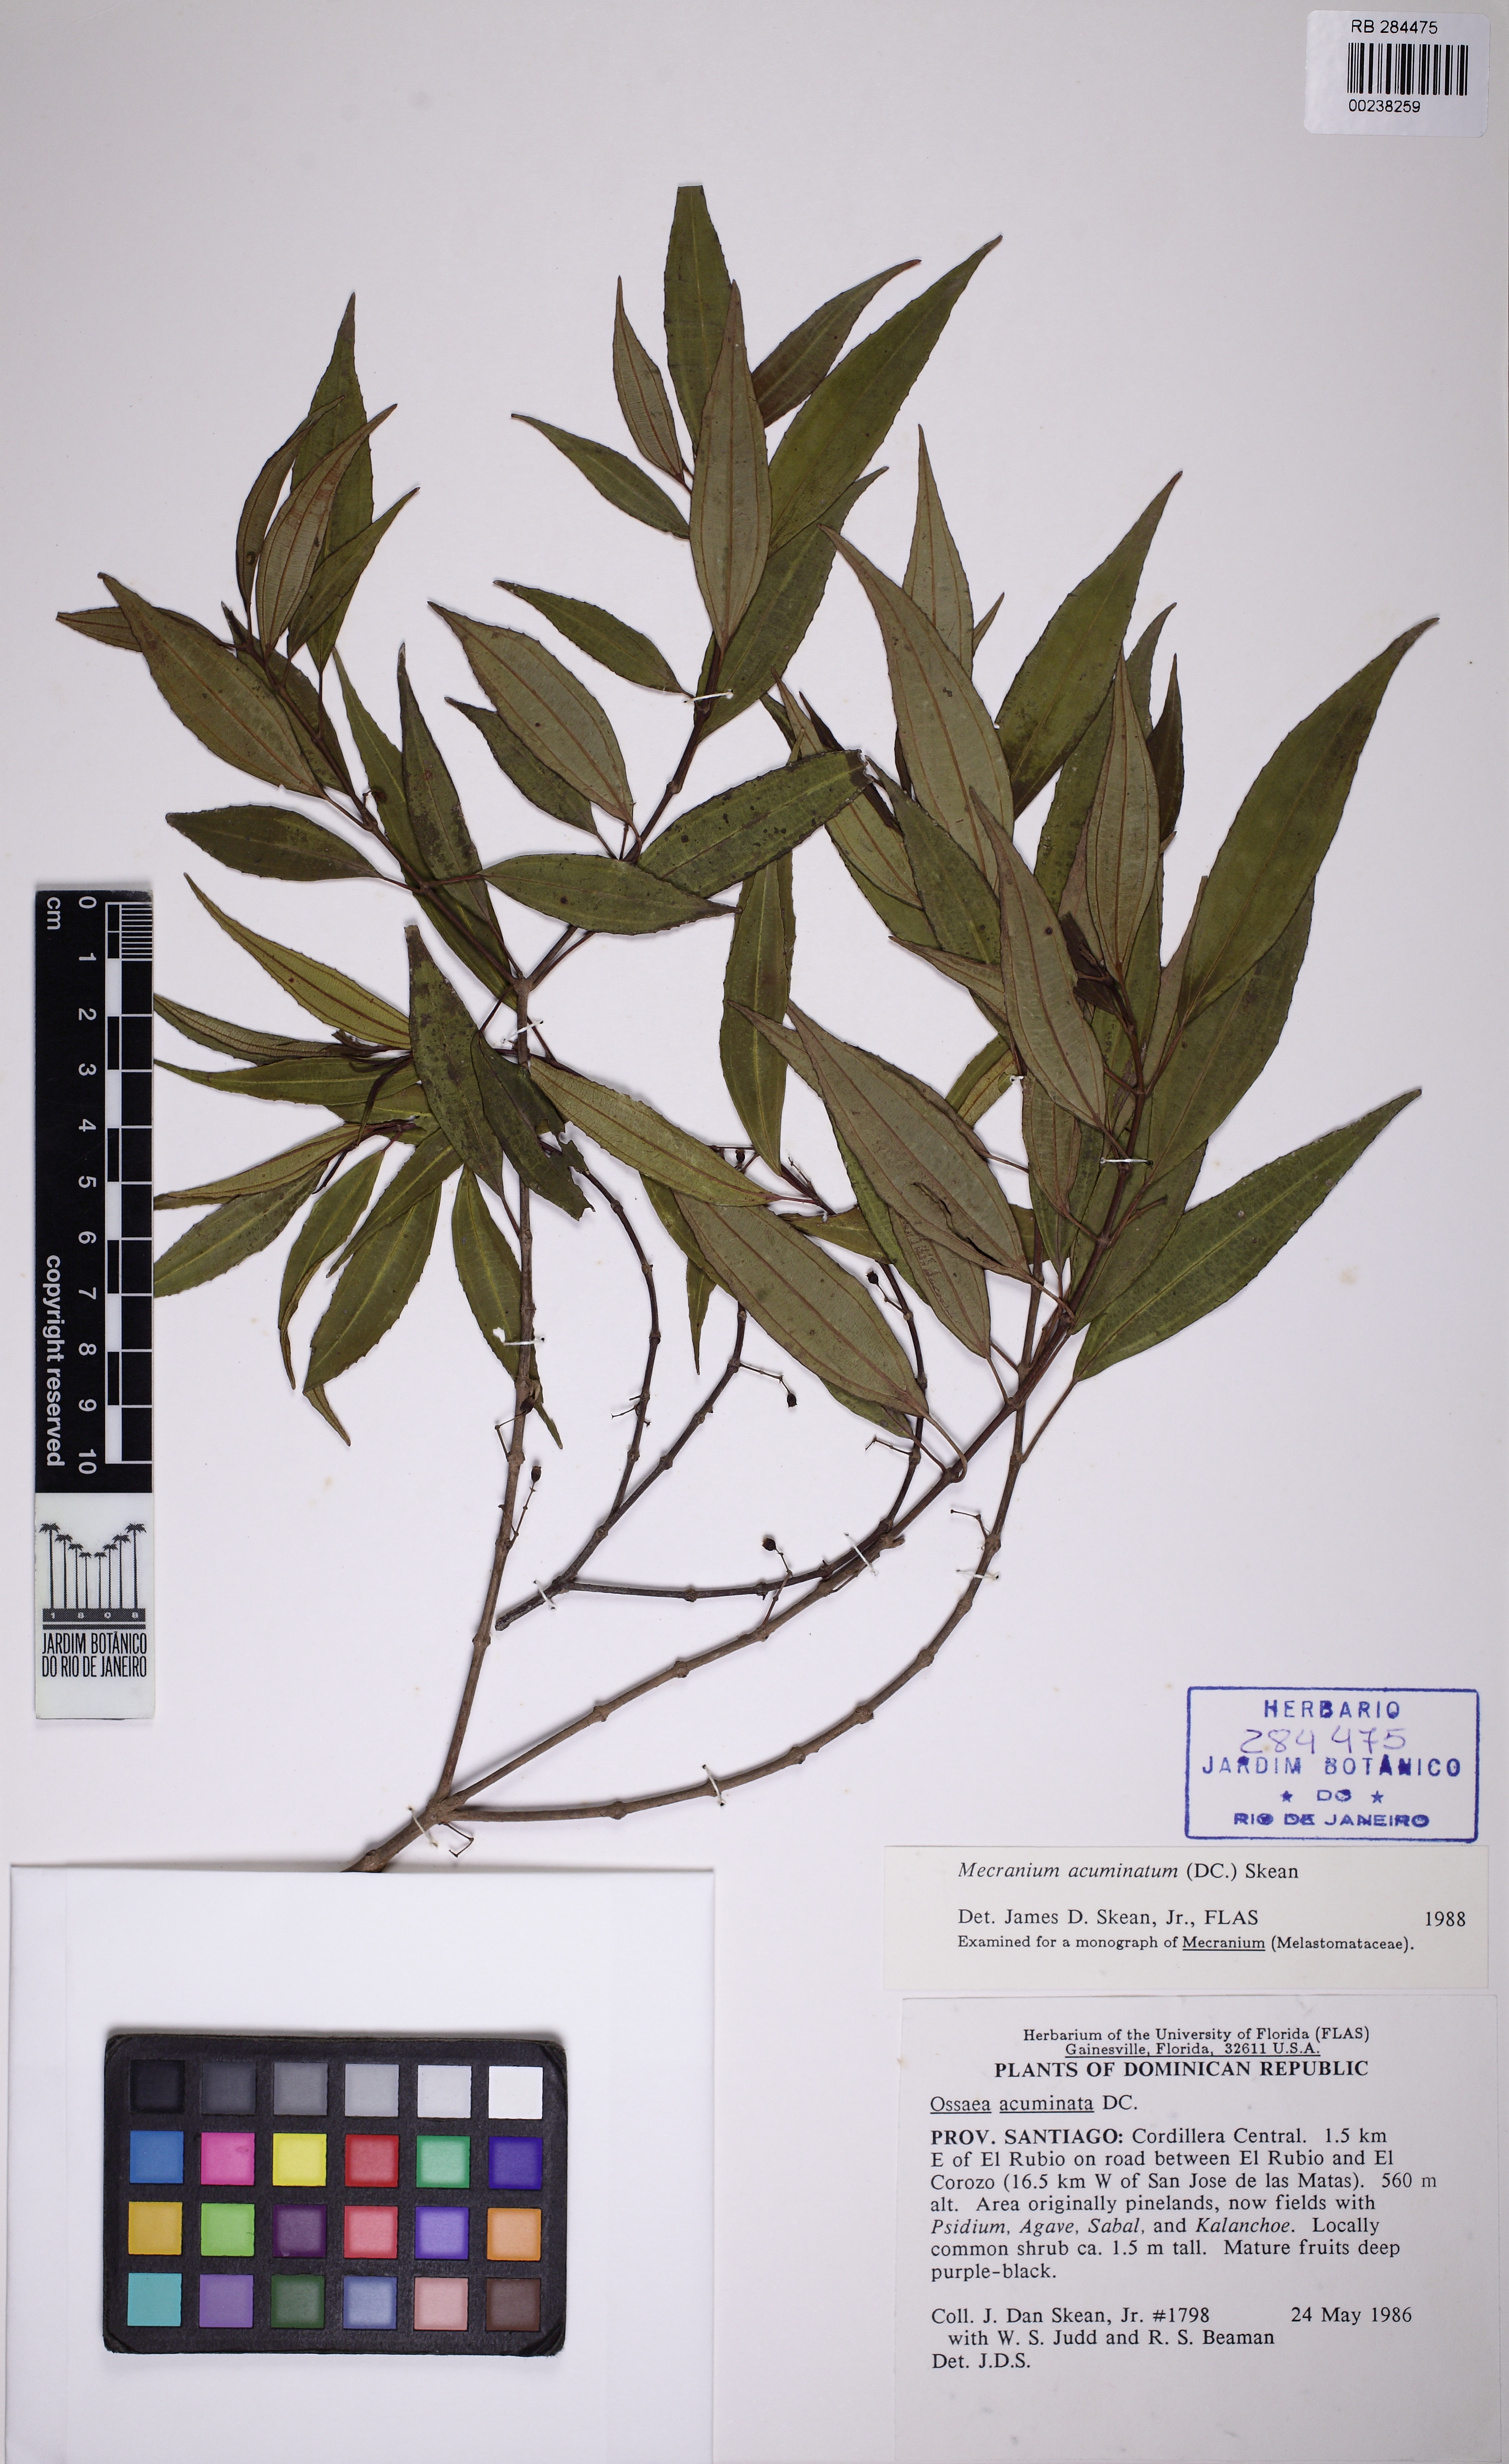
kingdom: Plantae
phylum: Tracheophyta
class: Magnoliopsida
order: Myrtales
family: Melastomataceae
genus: Miconia
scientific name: Miconia acuminoides
